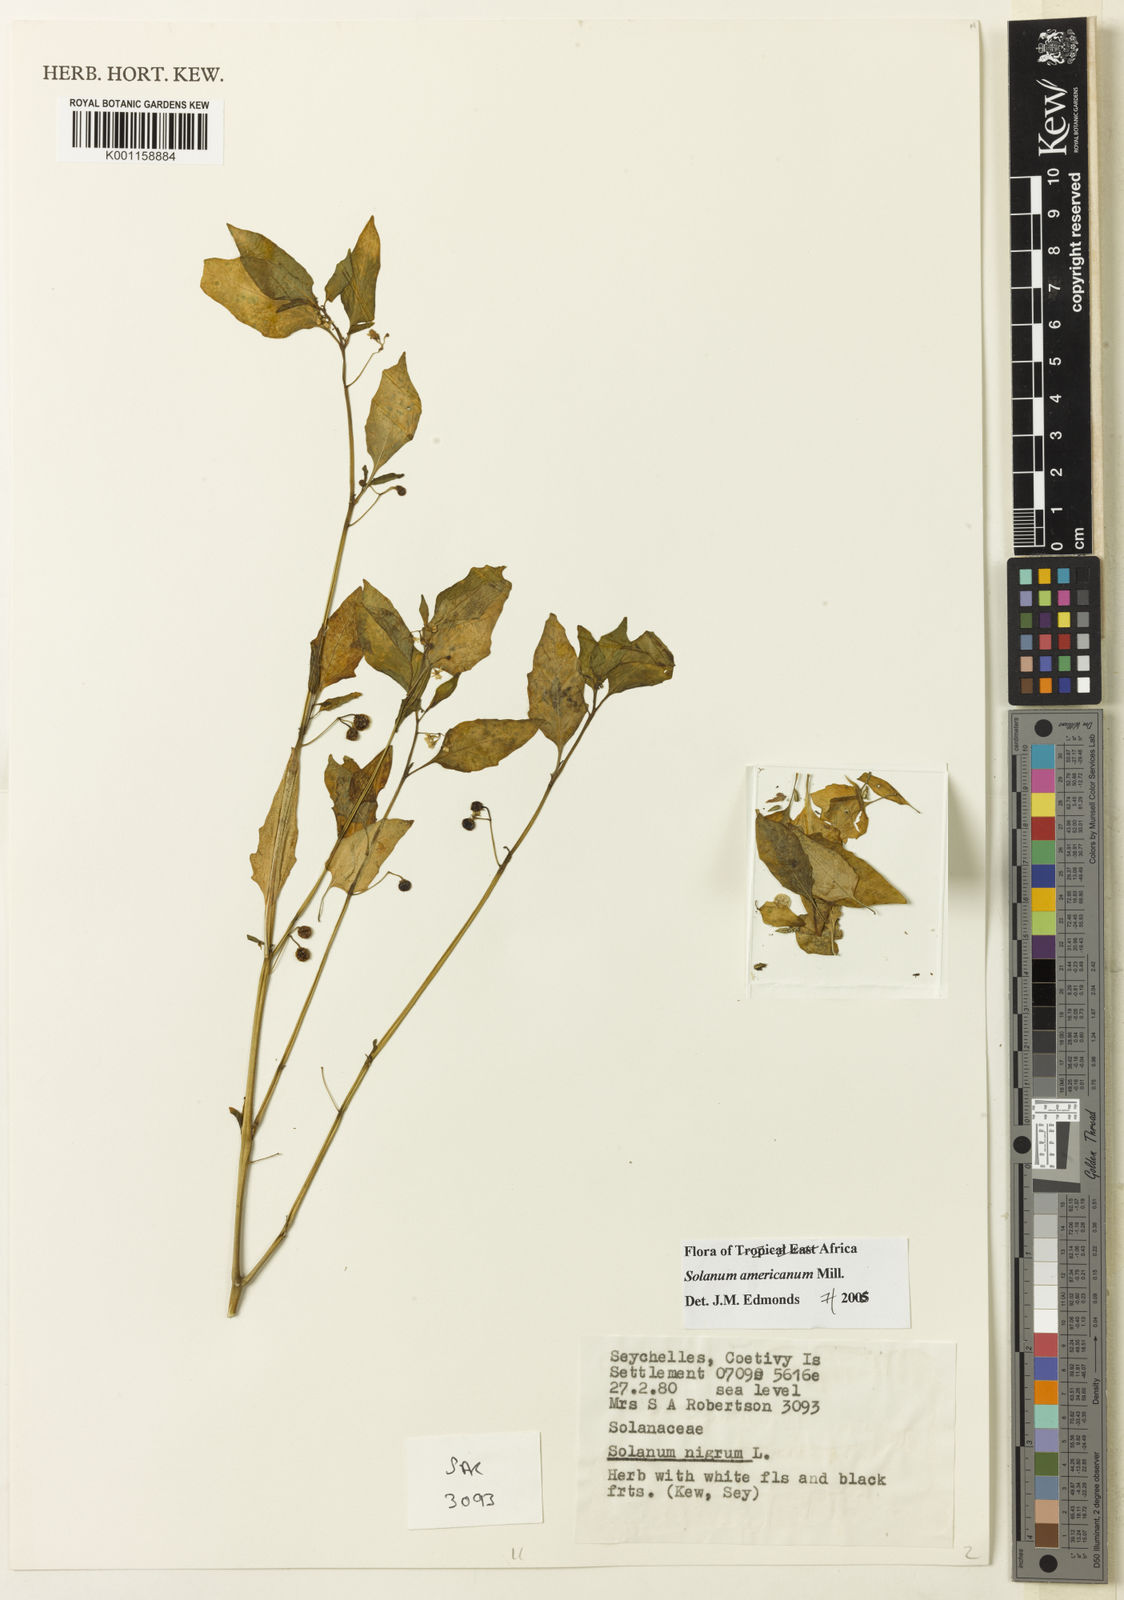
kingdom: Plantae
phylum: Tracheophyta
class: Magnoliopsida
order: Solanales
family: Solanaceae
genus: Solanum
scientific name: Solanum americanum
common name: American black nightshade
